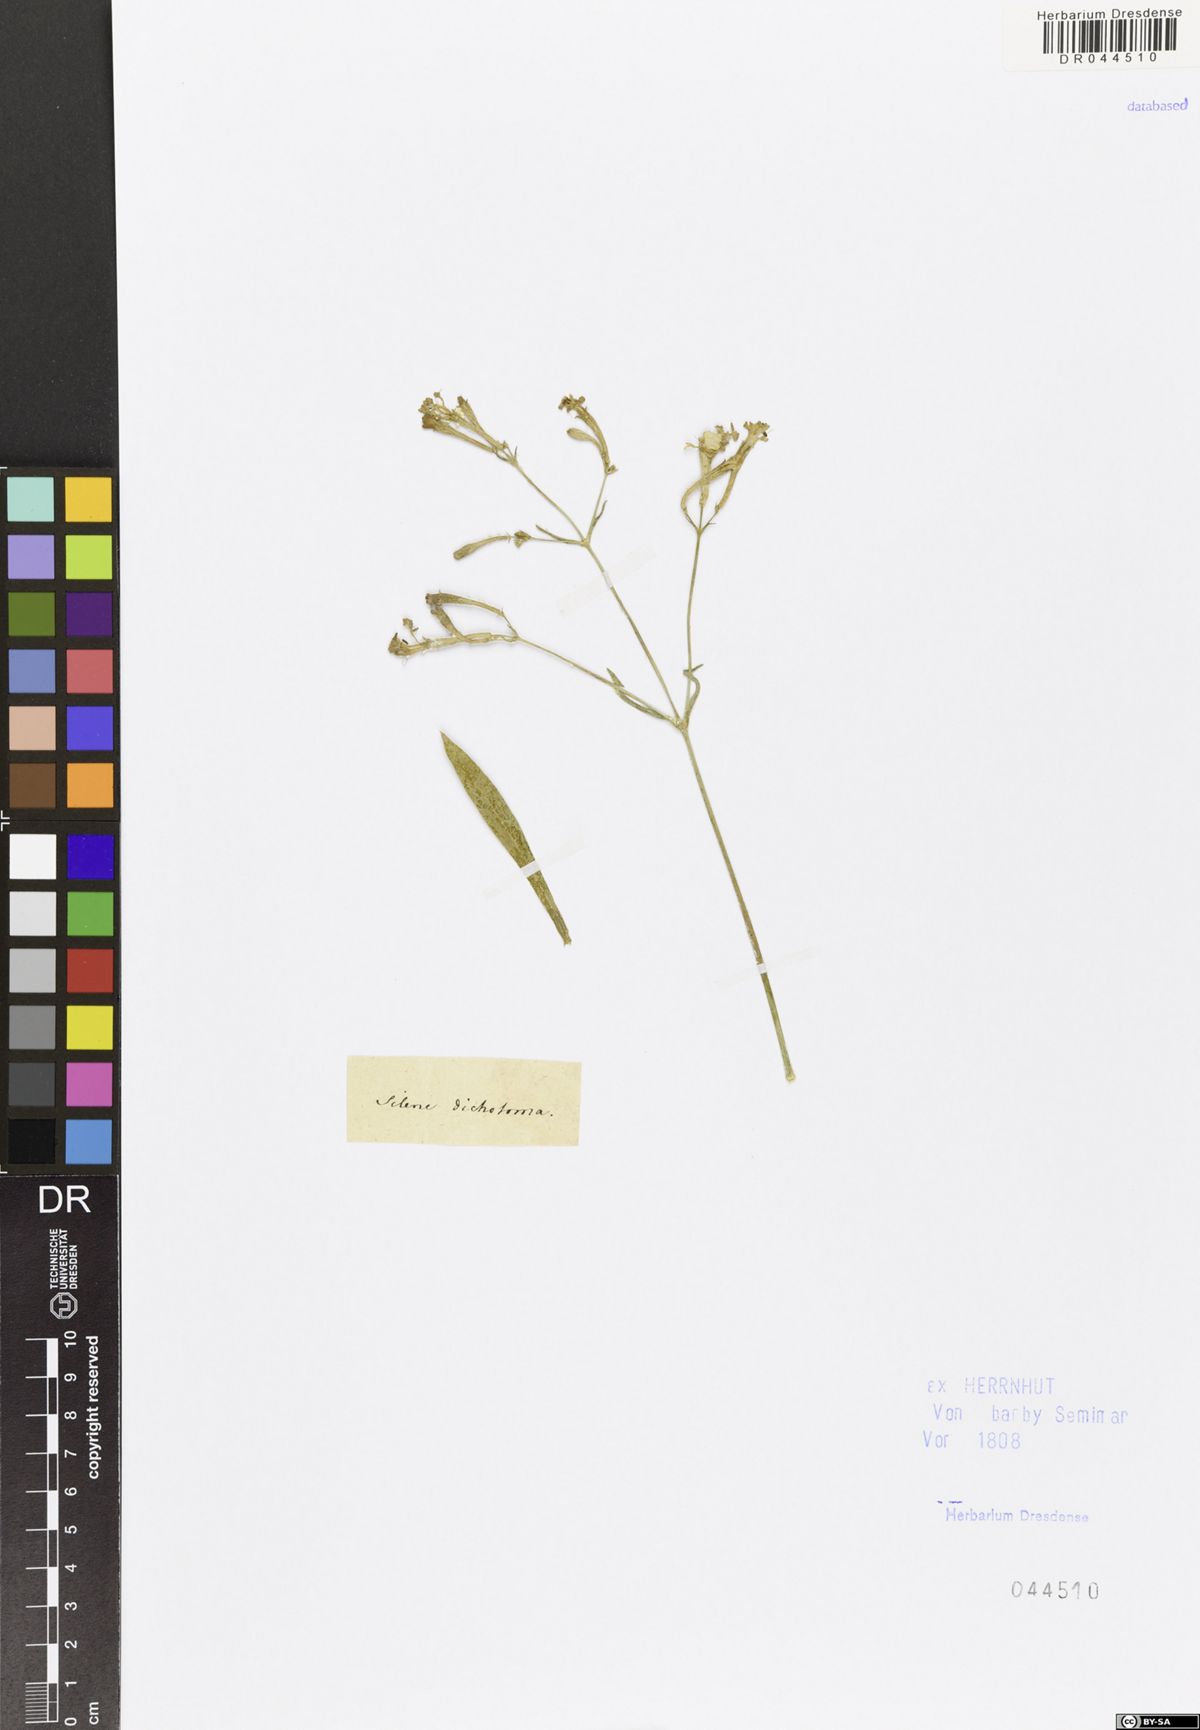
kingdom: Plantae
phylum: Tracheophyta
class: Magnoliopsida
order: Caryophyllales
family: Caryophyllaceae
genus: Silene
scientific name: Silene bupleuroides
